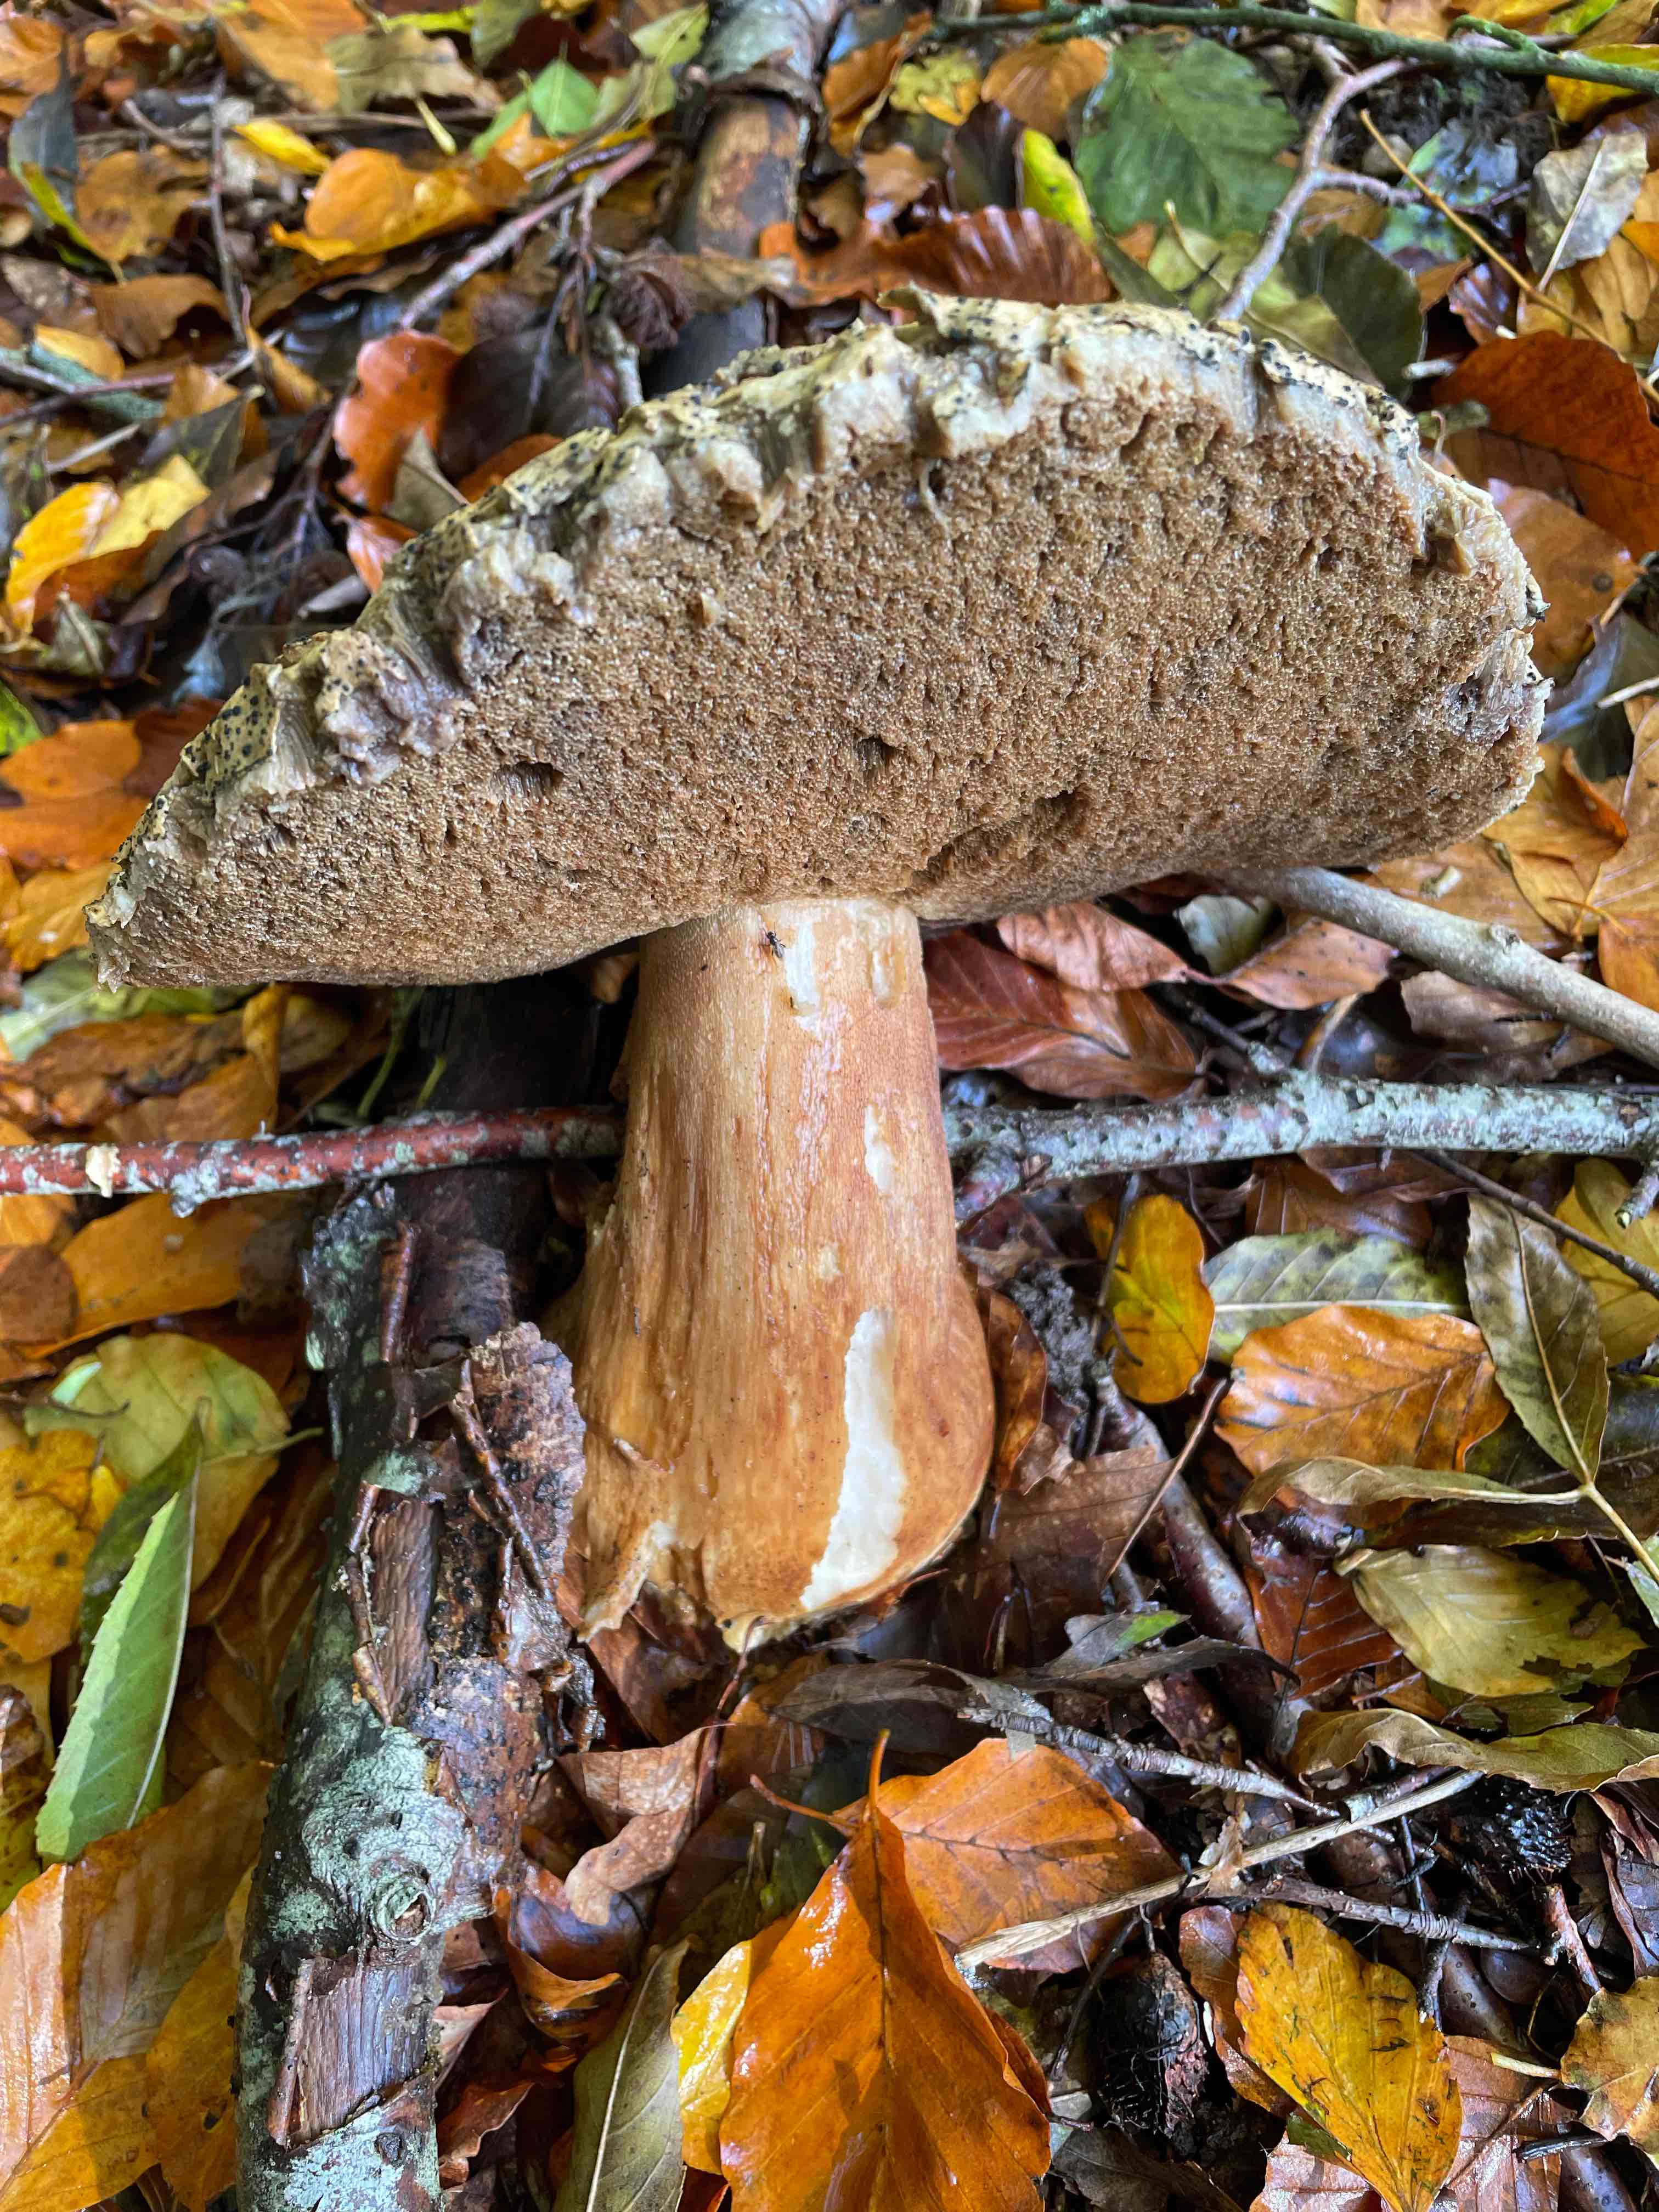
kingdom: Fungi
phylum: Basidiomycota
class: Agaricomycetes
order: Boletales
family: Boletaceae
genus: Boletus
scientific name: Boletus edulis
